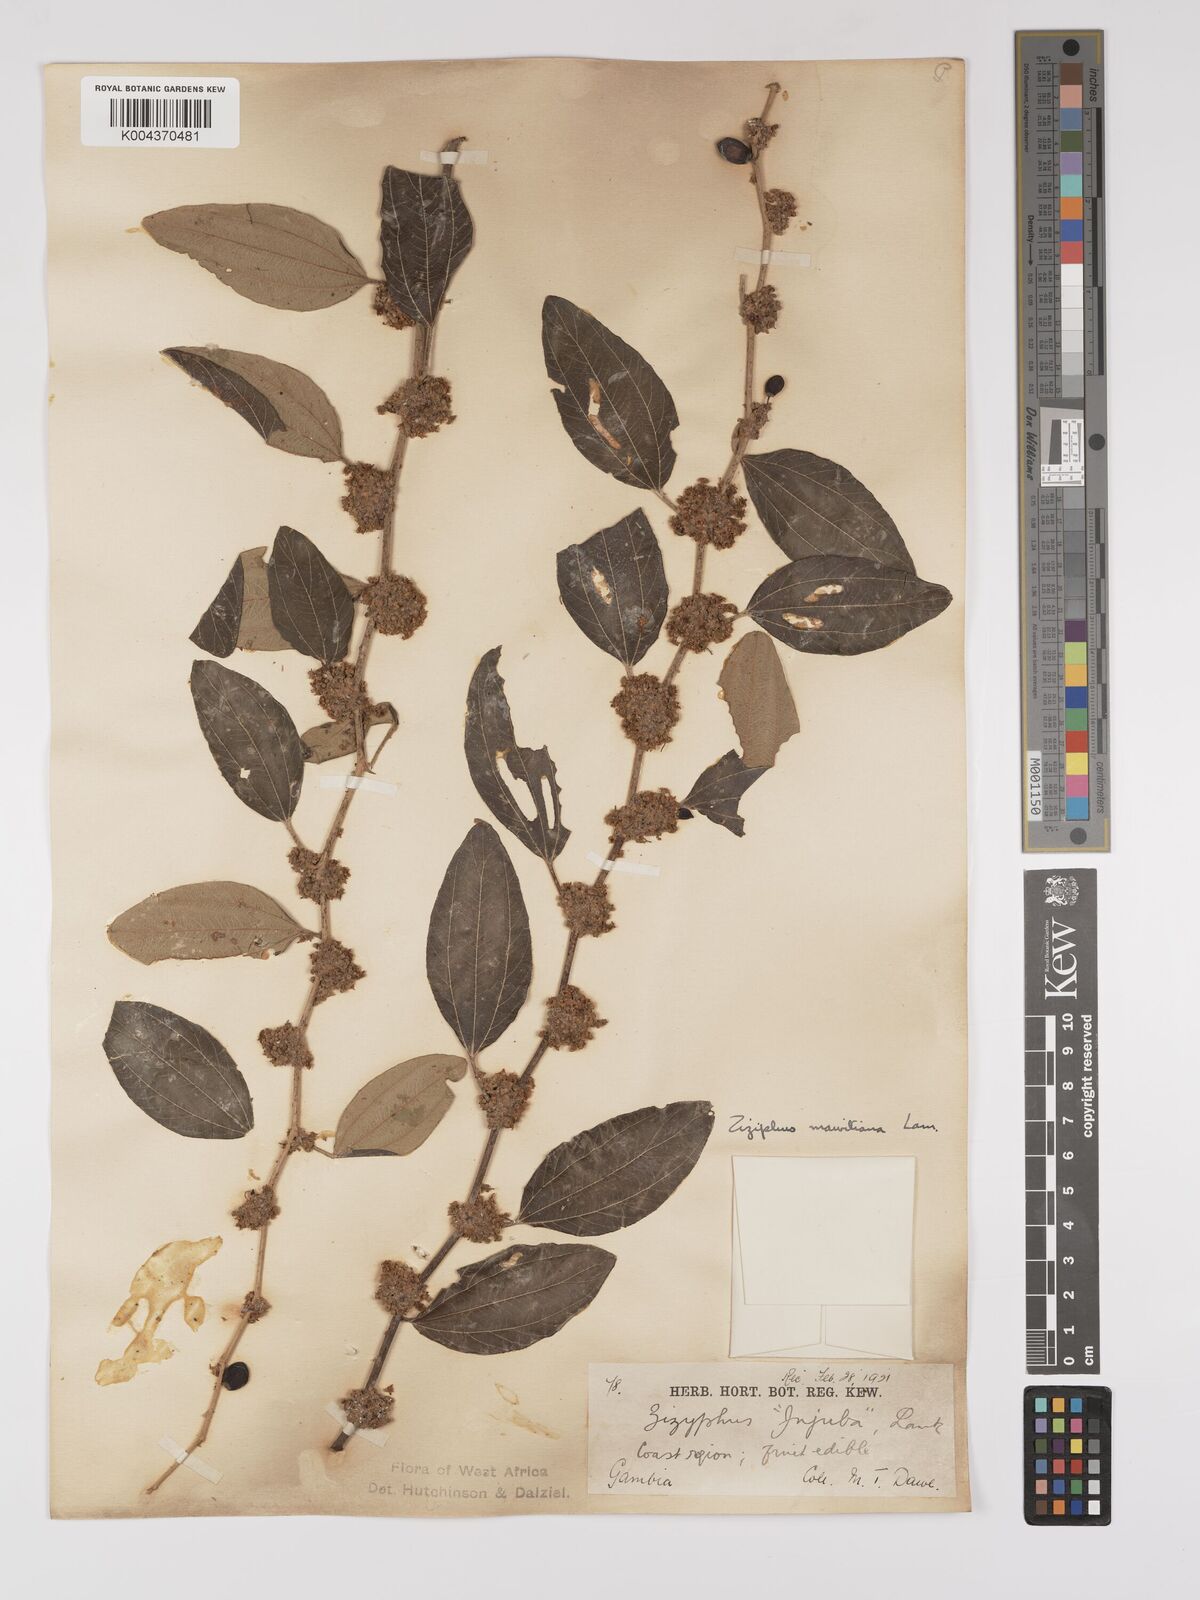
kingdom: Plantae
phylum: Tracheophyta
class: Magnoliopsida
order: Rosales
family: Rhamnaceae
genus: Ziziphus
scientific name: Ziziphus mauritiana
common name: Indian jujube
